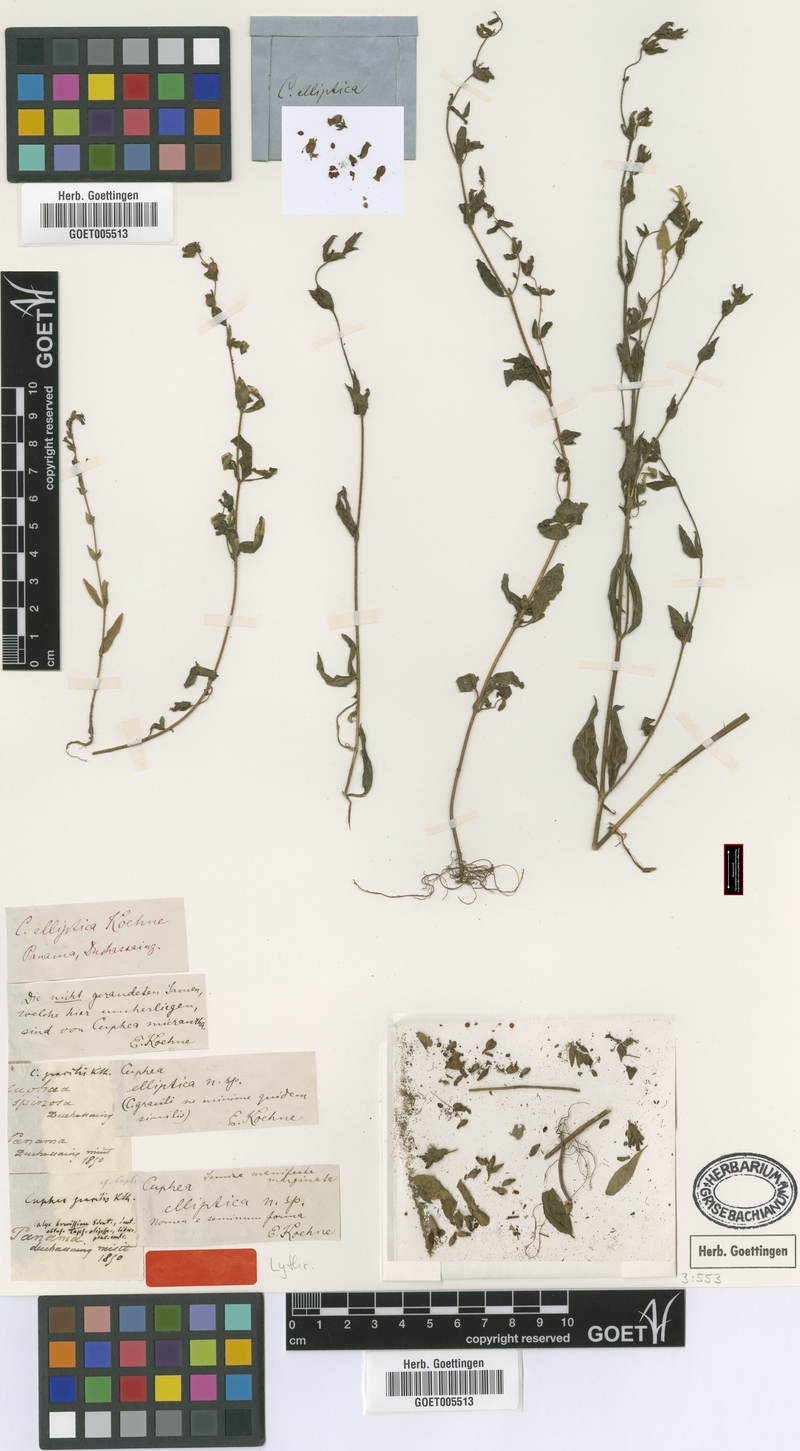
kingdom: Plantae
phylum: Tracheophyta
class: Magnoliopsida
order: Myrtales
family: Lythraceae
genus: Cuphea
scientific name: Cuphea elliptica
